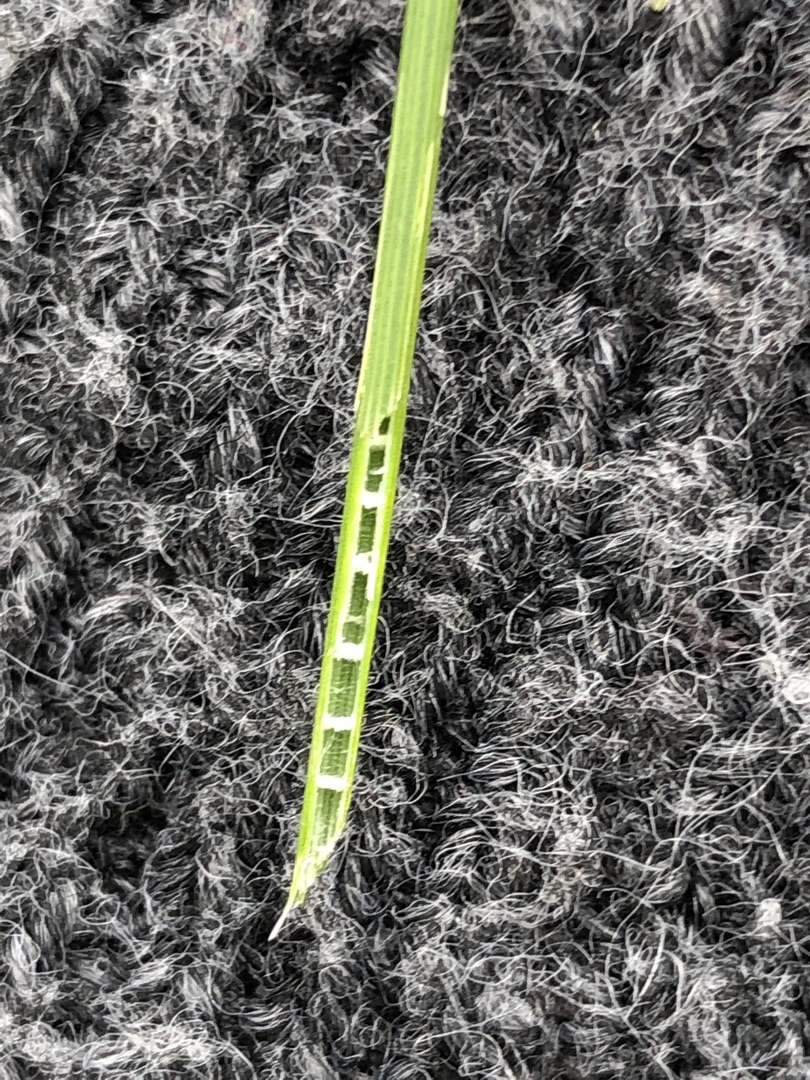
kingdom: Plantae
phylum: Tracheophyta
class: Liliopsida
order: Poales
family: Juncaceae
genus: Juncus
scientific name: Juncus inflexus
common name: Blågrå siv
